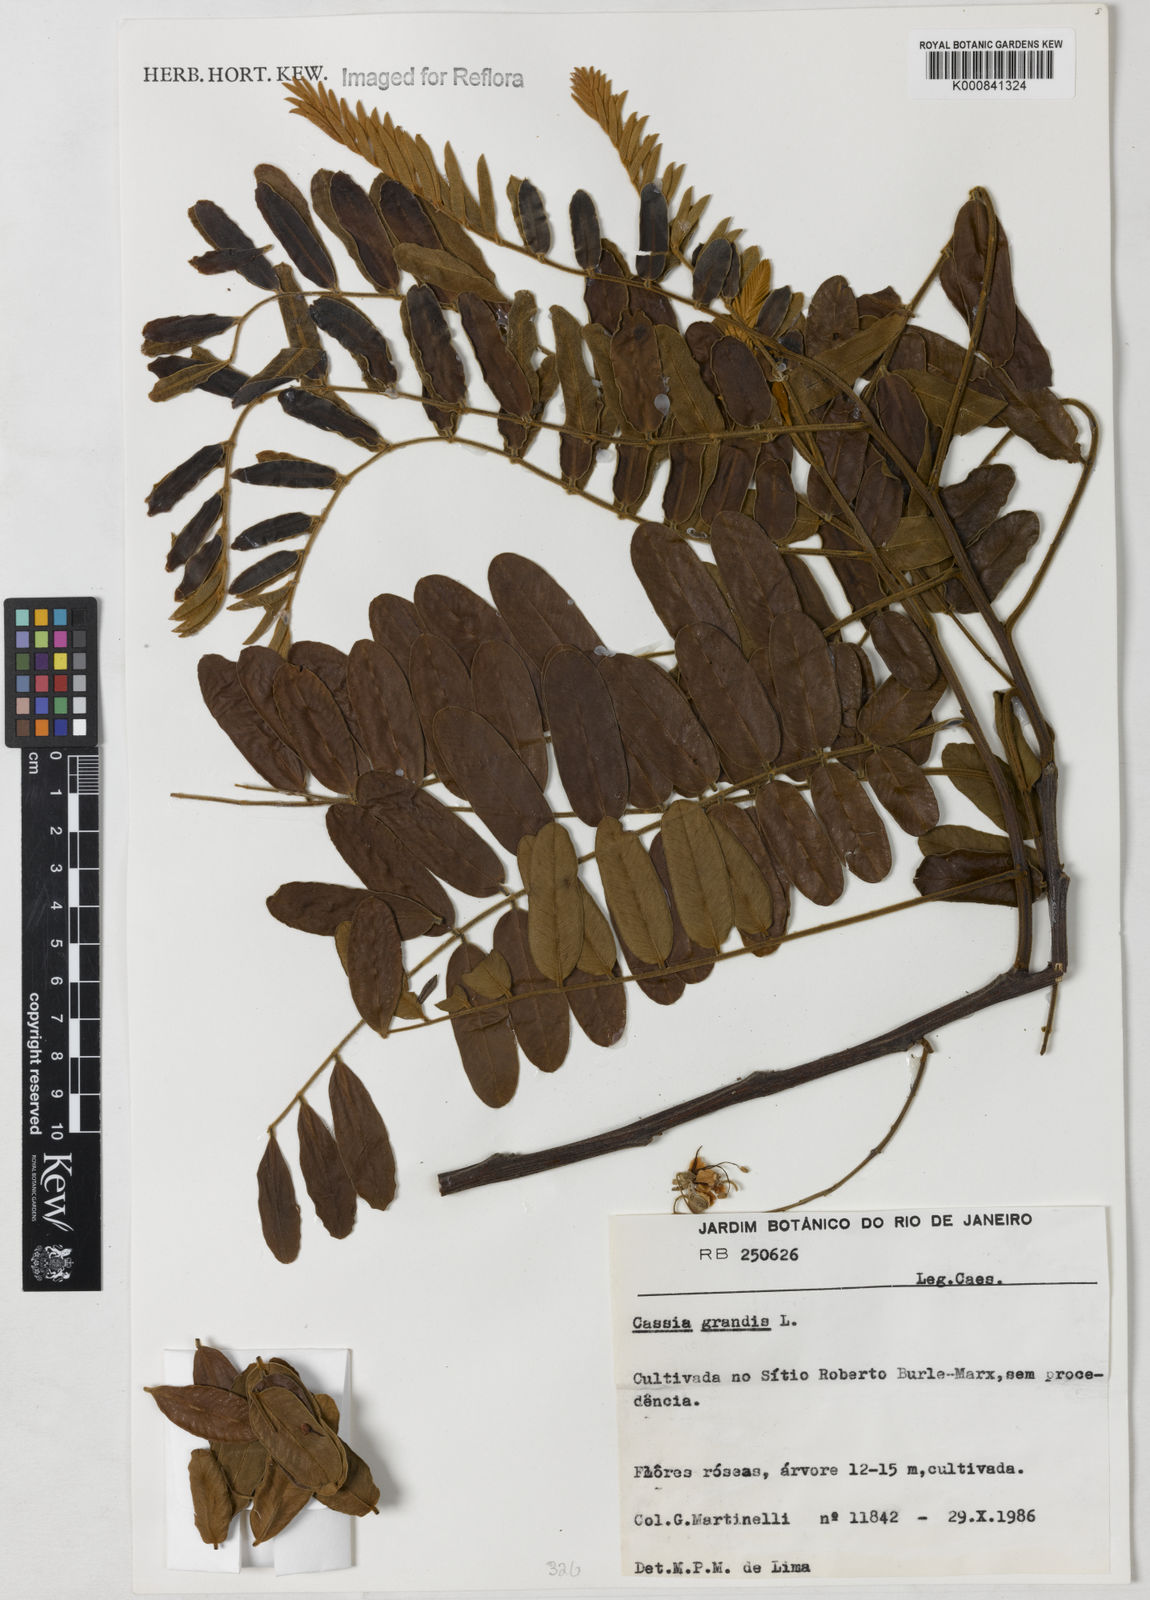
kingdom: Plantae
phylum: Tracheophyta
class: Magnoliopsida
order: Fabales
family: Fabaceae
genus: Cassia
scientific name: Cassia grandis
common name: Appleblossom cassia
